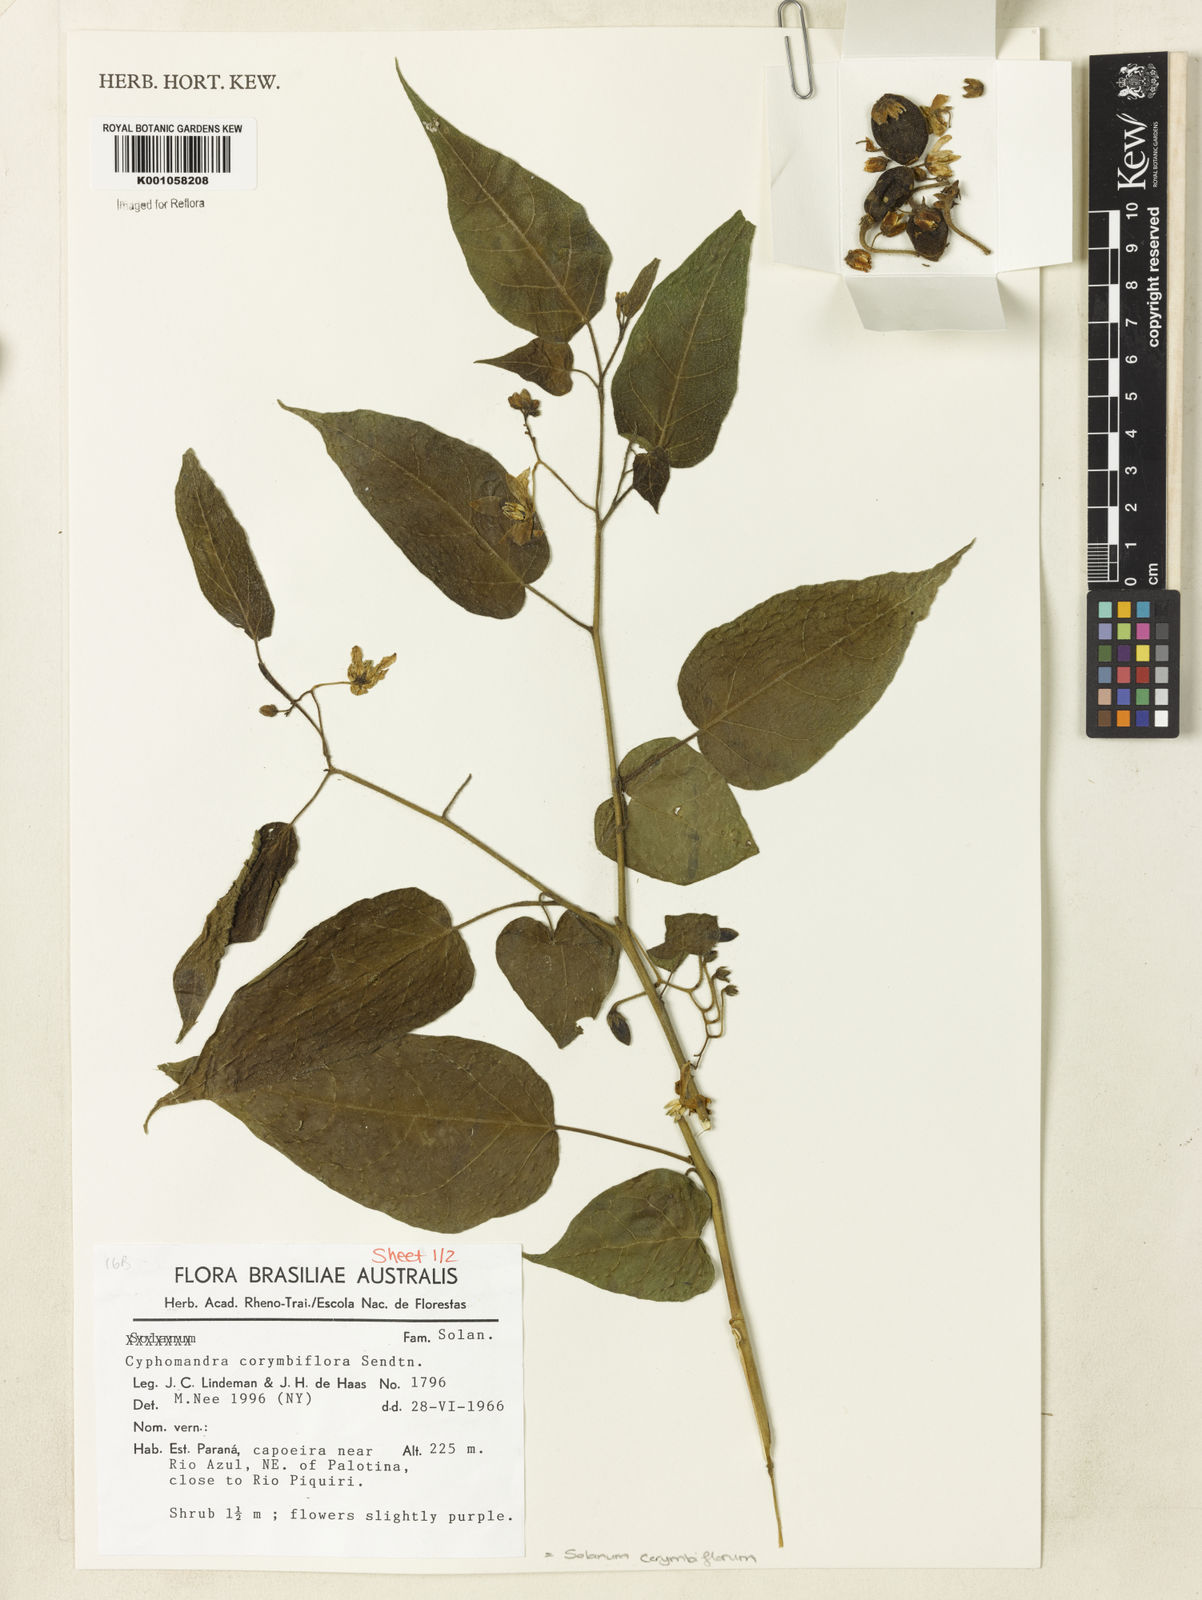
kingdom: Plantae
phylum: Tracheophyta
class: Magnoliopsida
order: Solanales
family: Solanaceae
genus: Solanum
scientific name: Solanum corymbiflorum
